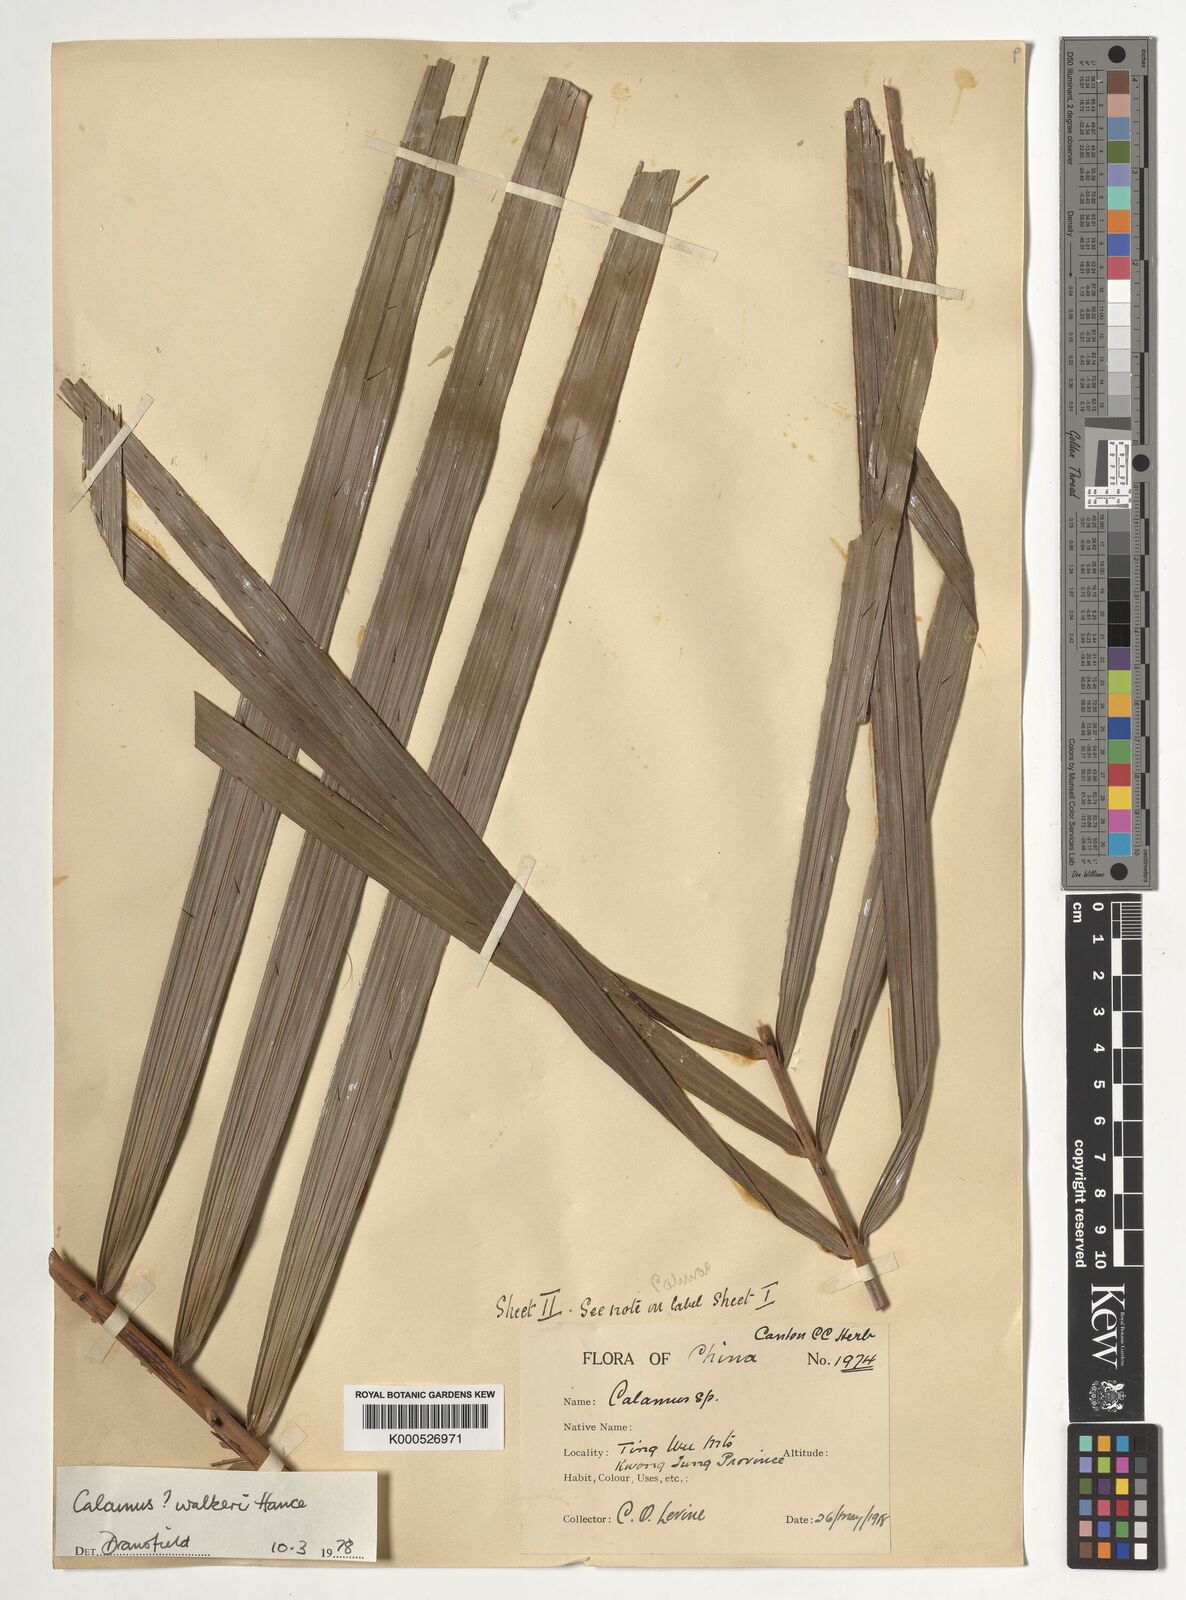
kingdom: Plantae
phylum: Tracheophyta
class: Liliopsida
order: Arecales
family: Arecaceae
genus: Calamus
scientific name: Calamus walkeri
